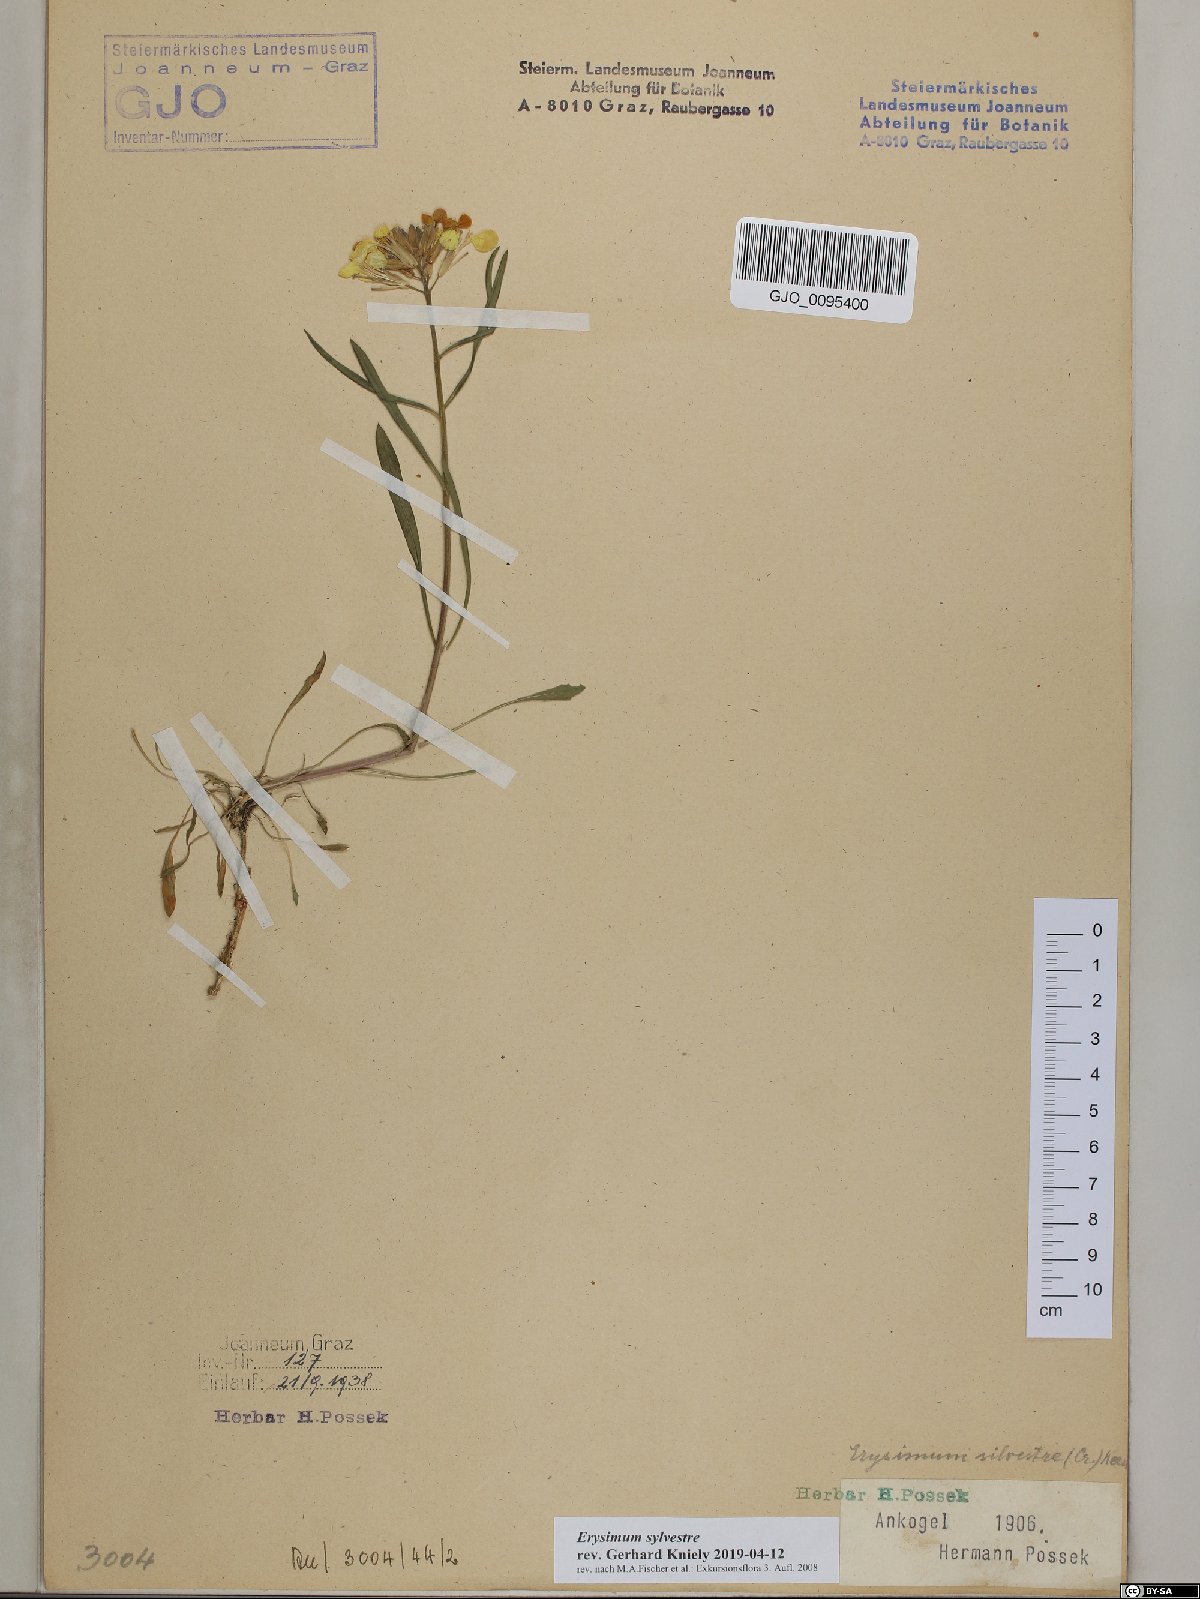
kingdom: Plantae
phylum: Tracheophyta
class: Magnoliopsida
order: Brassicales
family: Brassicaceae
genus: Erysimum
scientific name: Erysimum sylvestre
